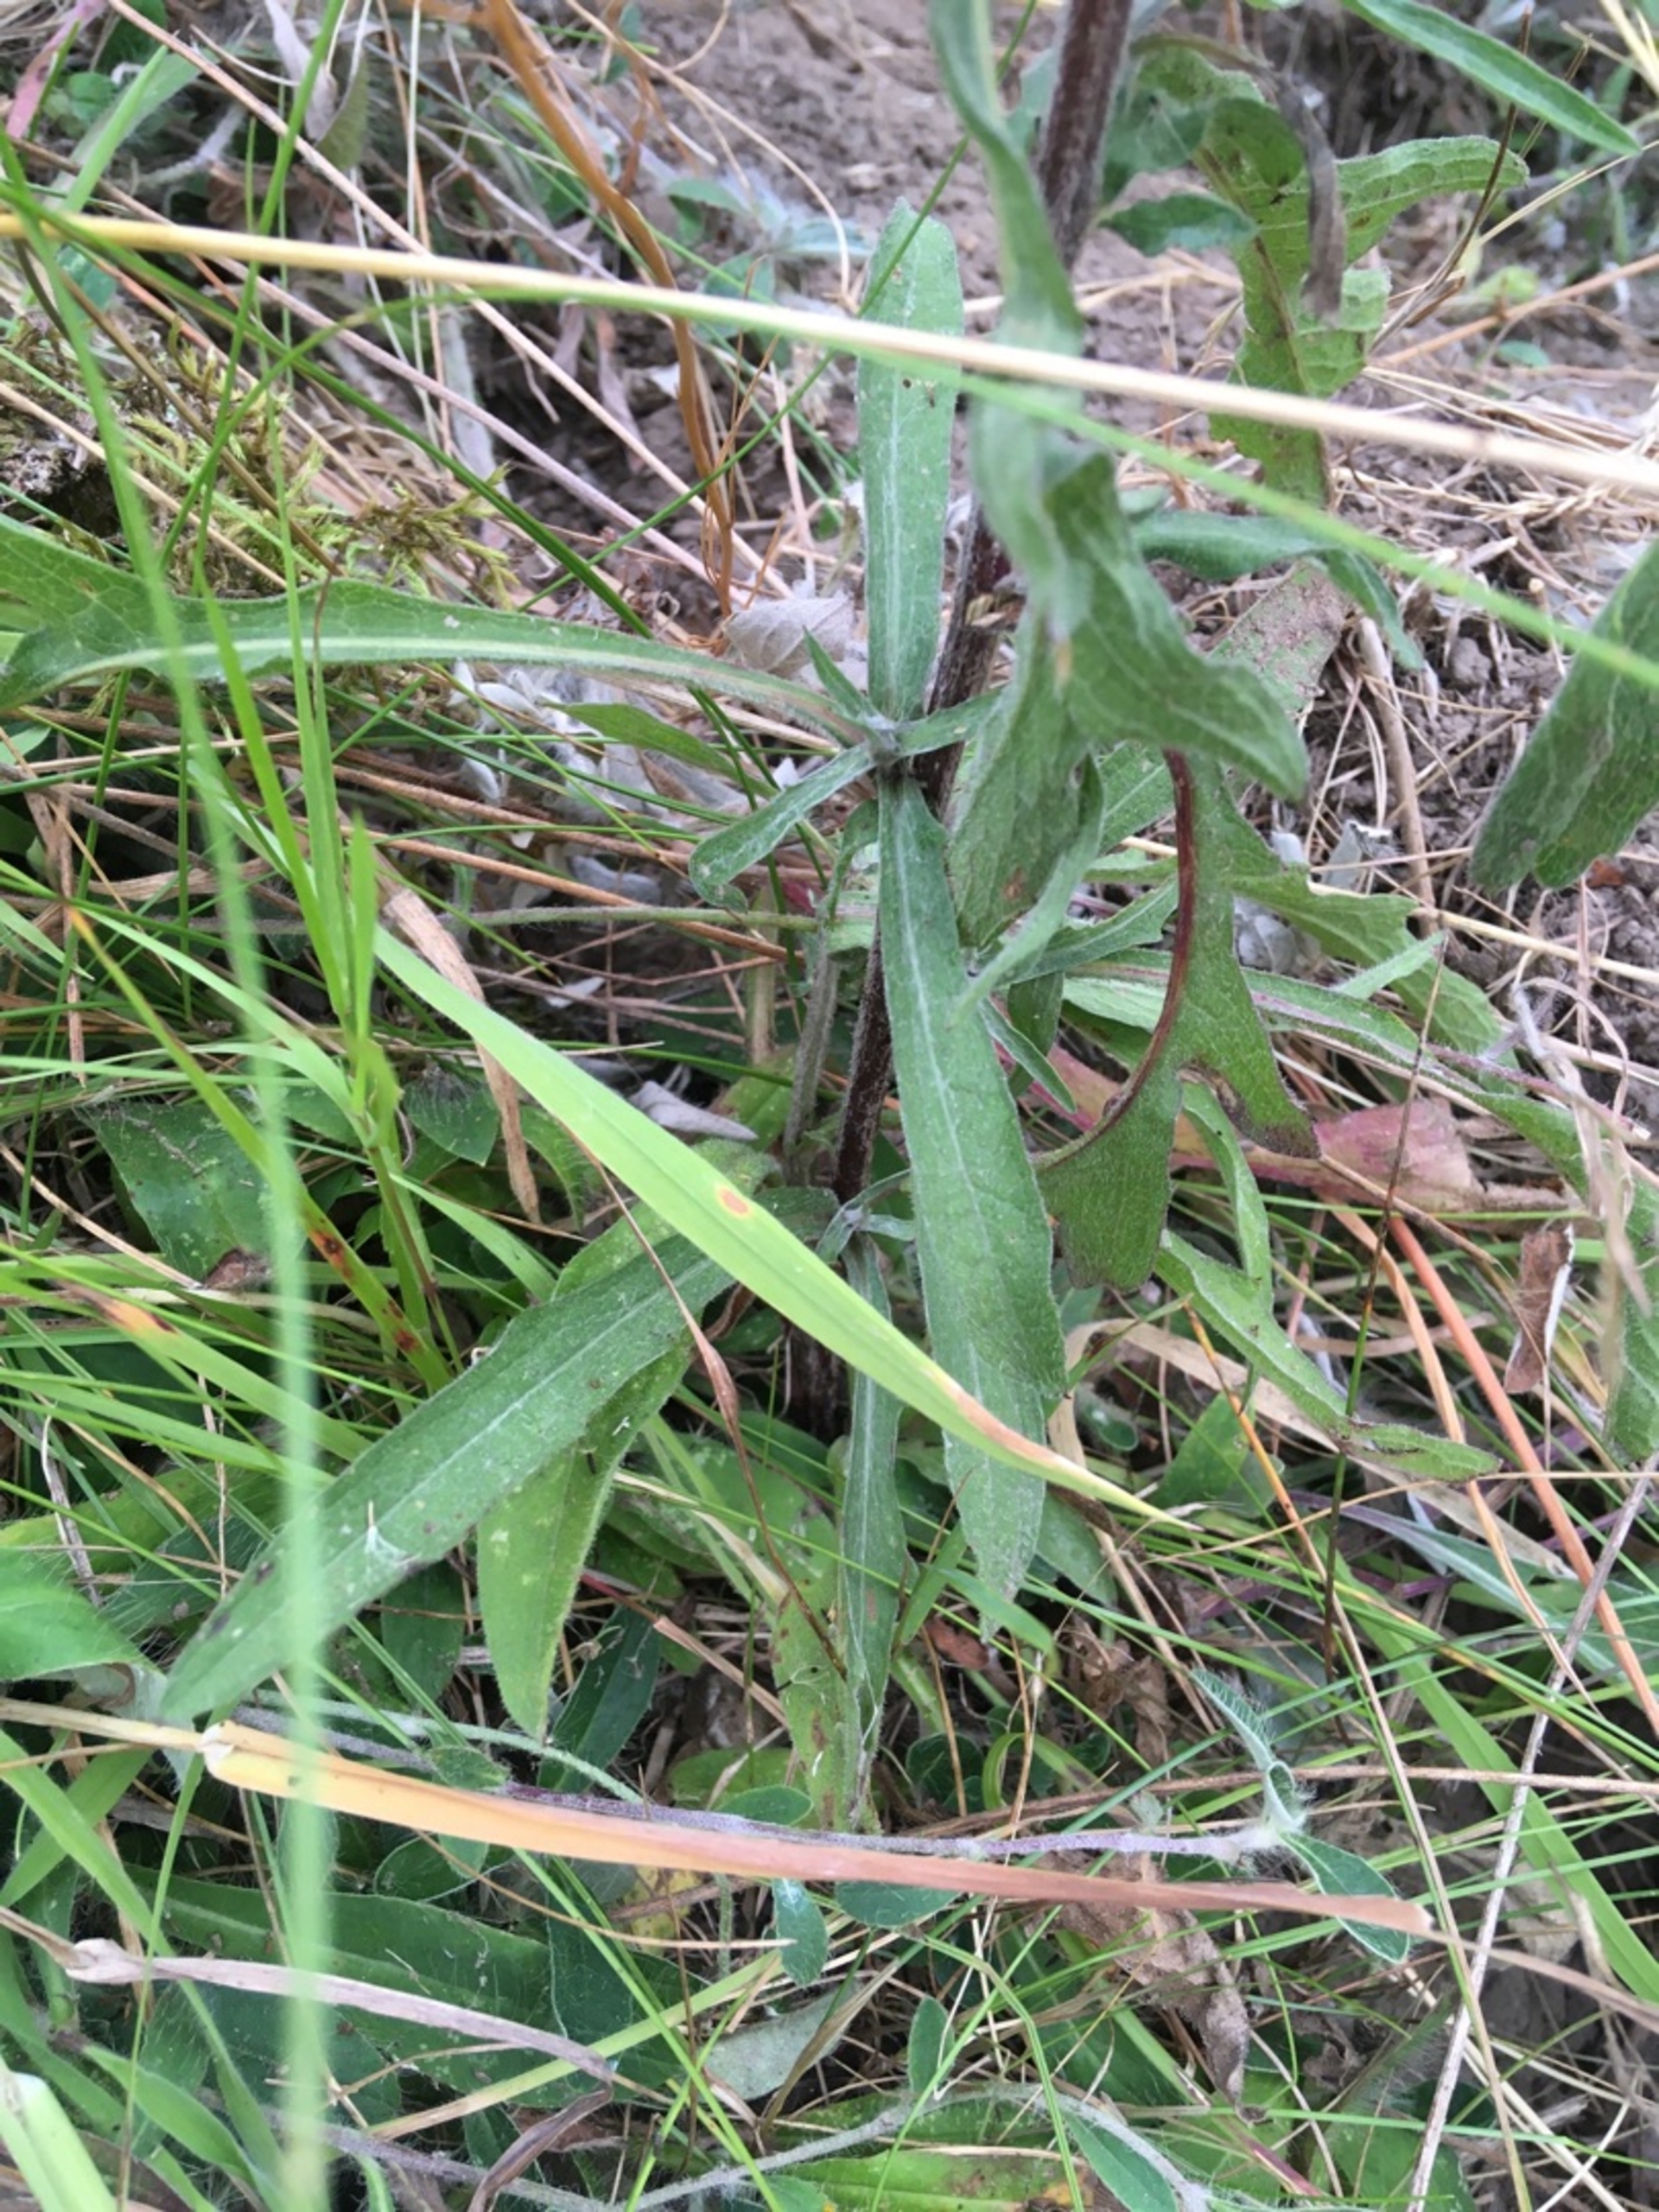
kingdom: Plantae
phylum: Tracheophyta
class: Magnoliopsida
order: Asterales
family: Asteraceae
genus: Centaurea
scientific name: Centaurea jacea
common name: Almindelig knopurt
